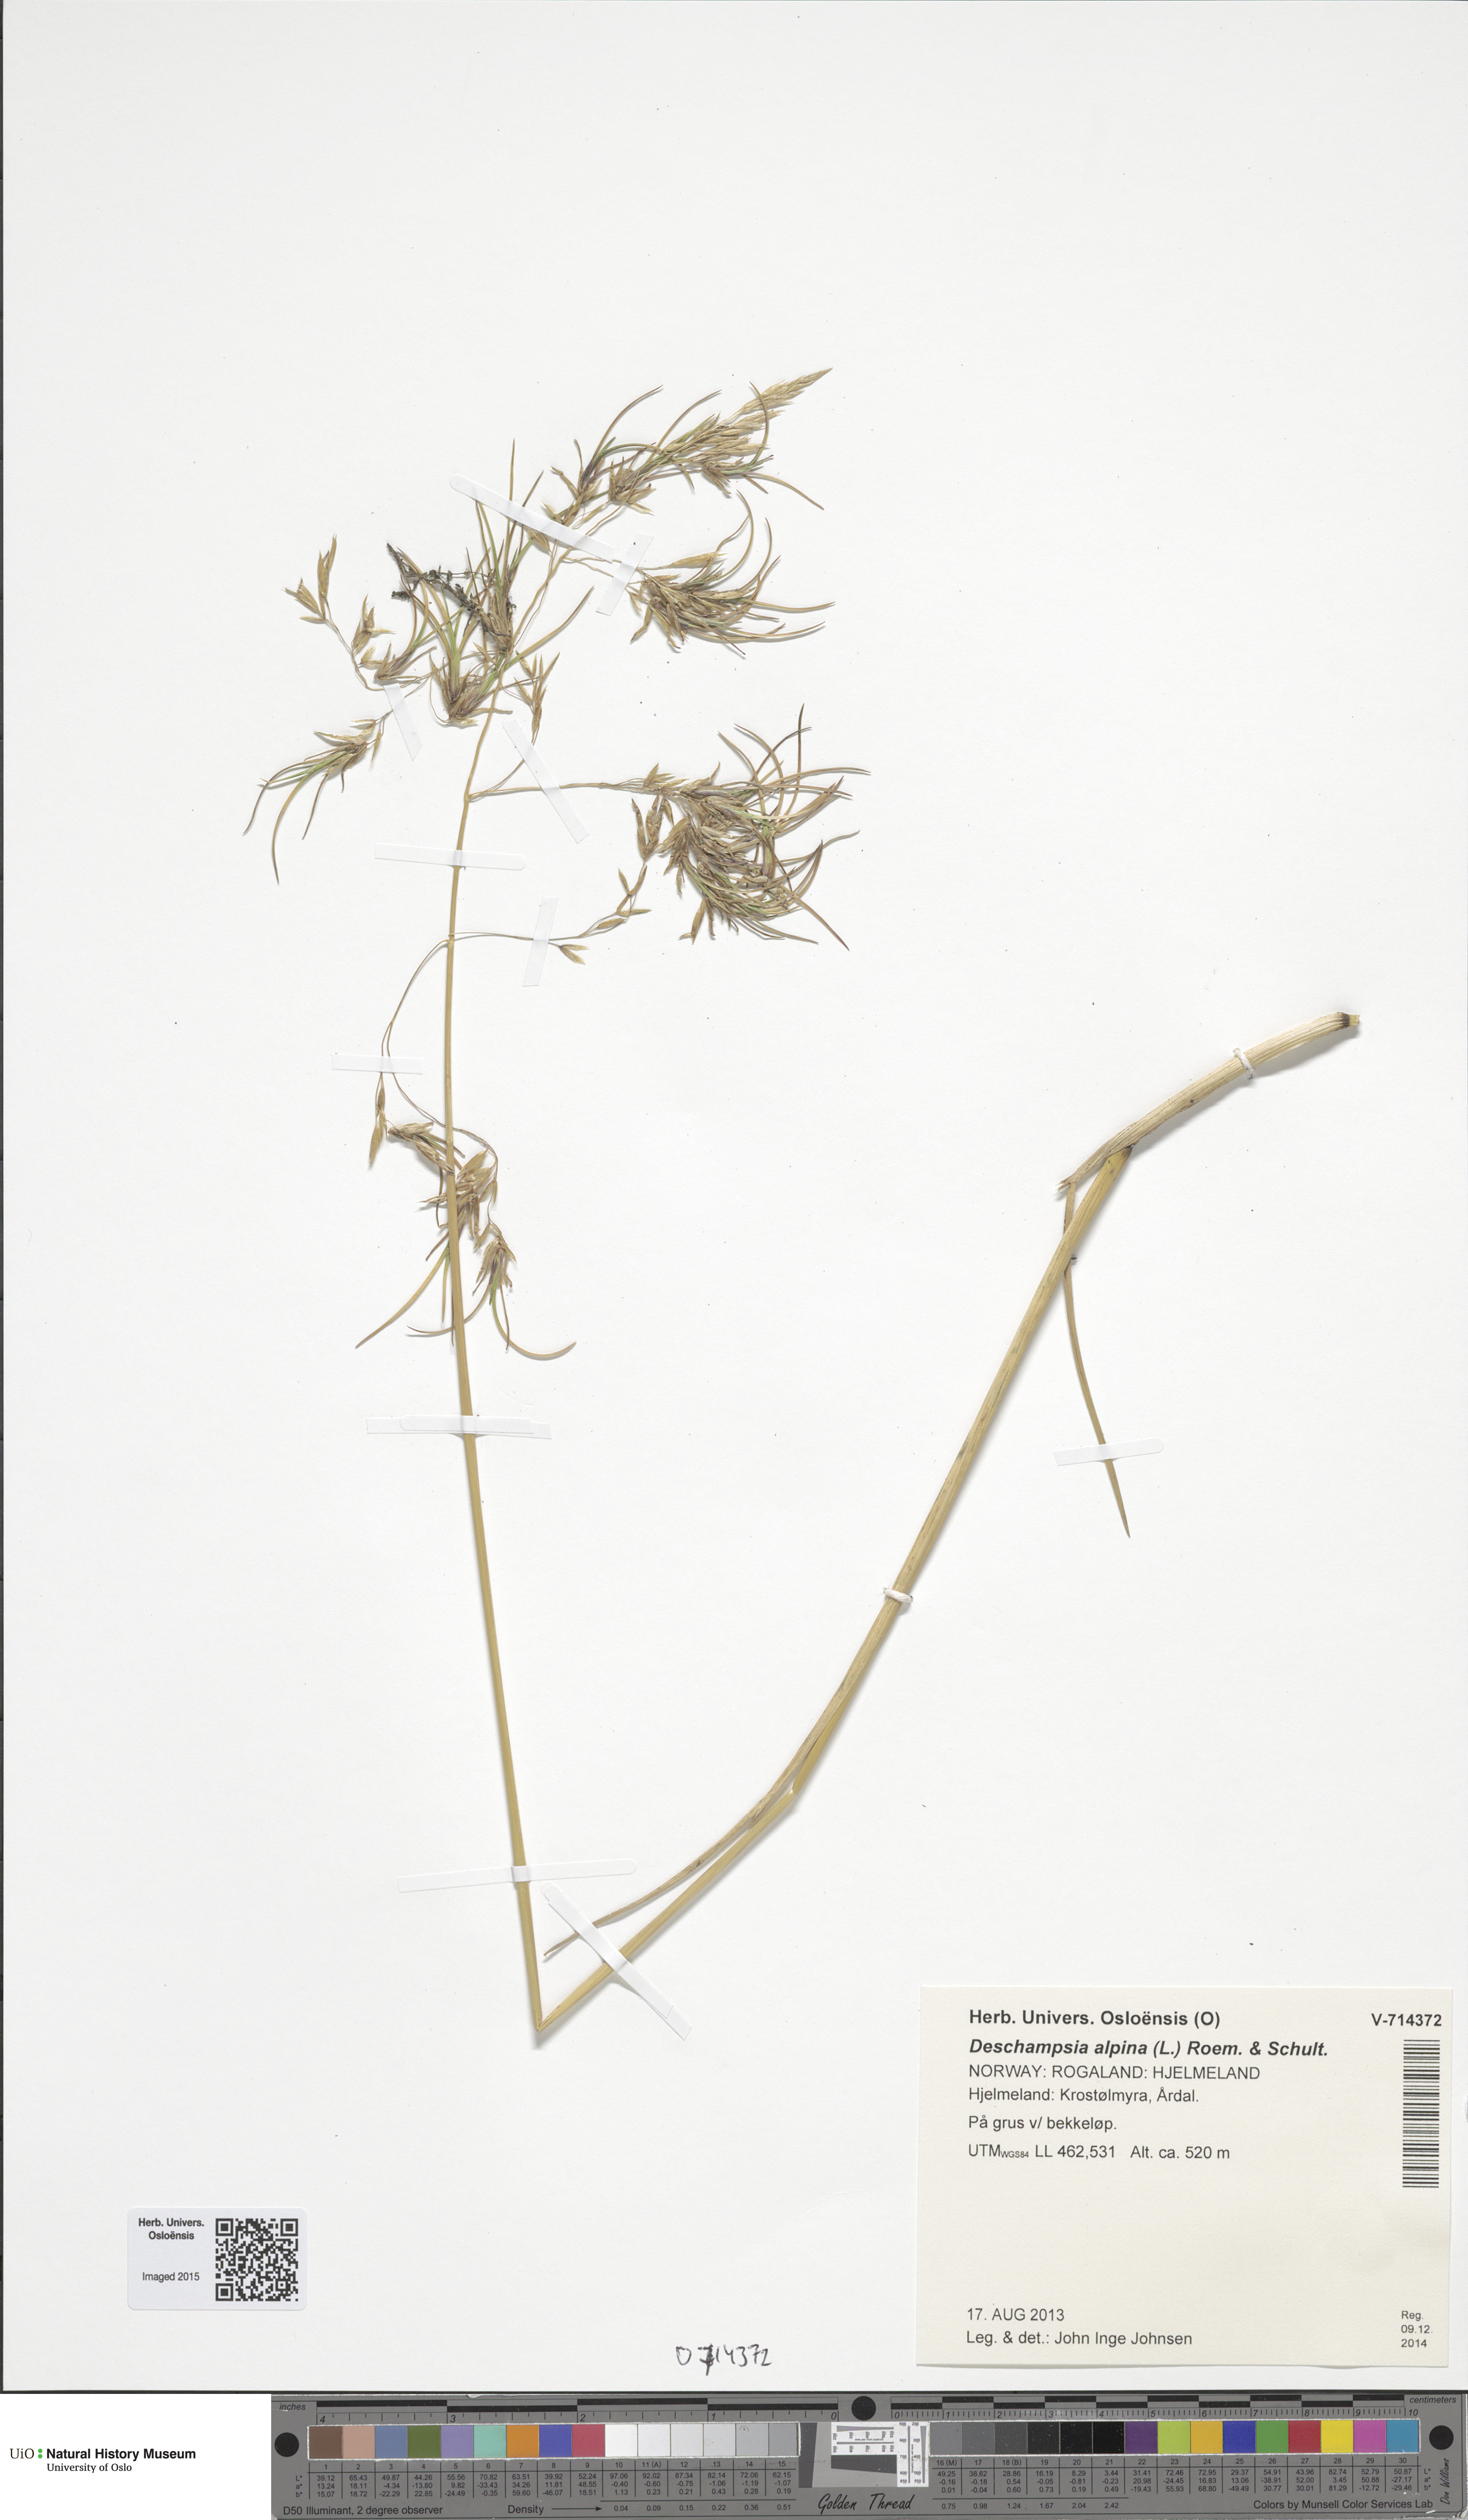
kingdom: Plantae
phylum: Tracheophyta
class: Liliopsida
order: Poales
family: Poaceae
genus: Deschampsia
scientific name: Deschampsia cespitosa
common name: Tufted hair-grass
